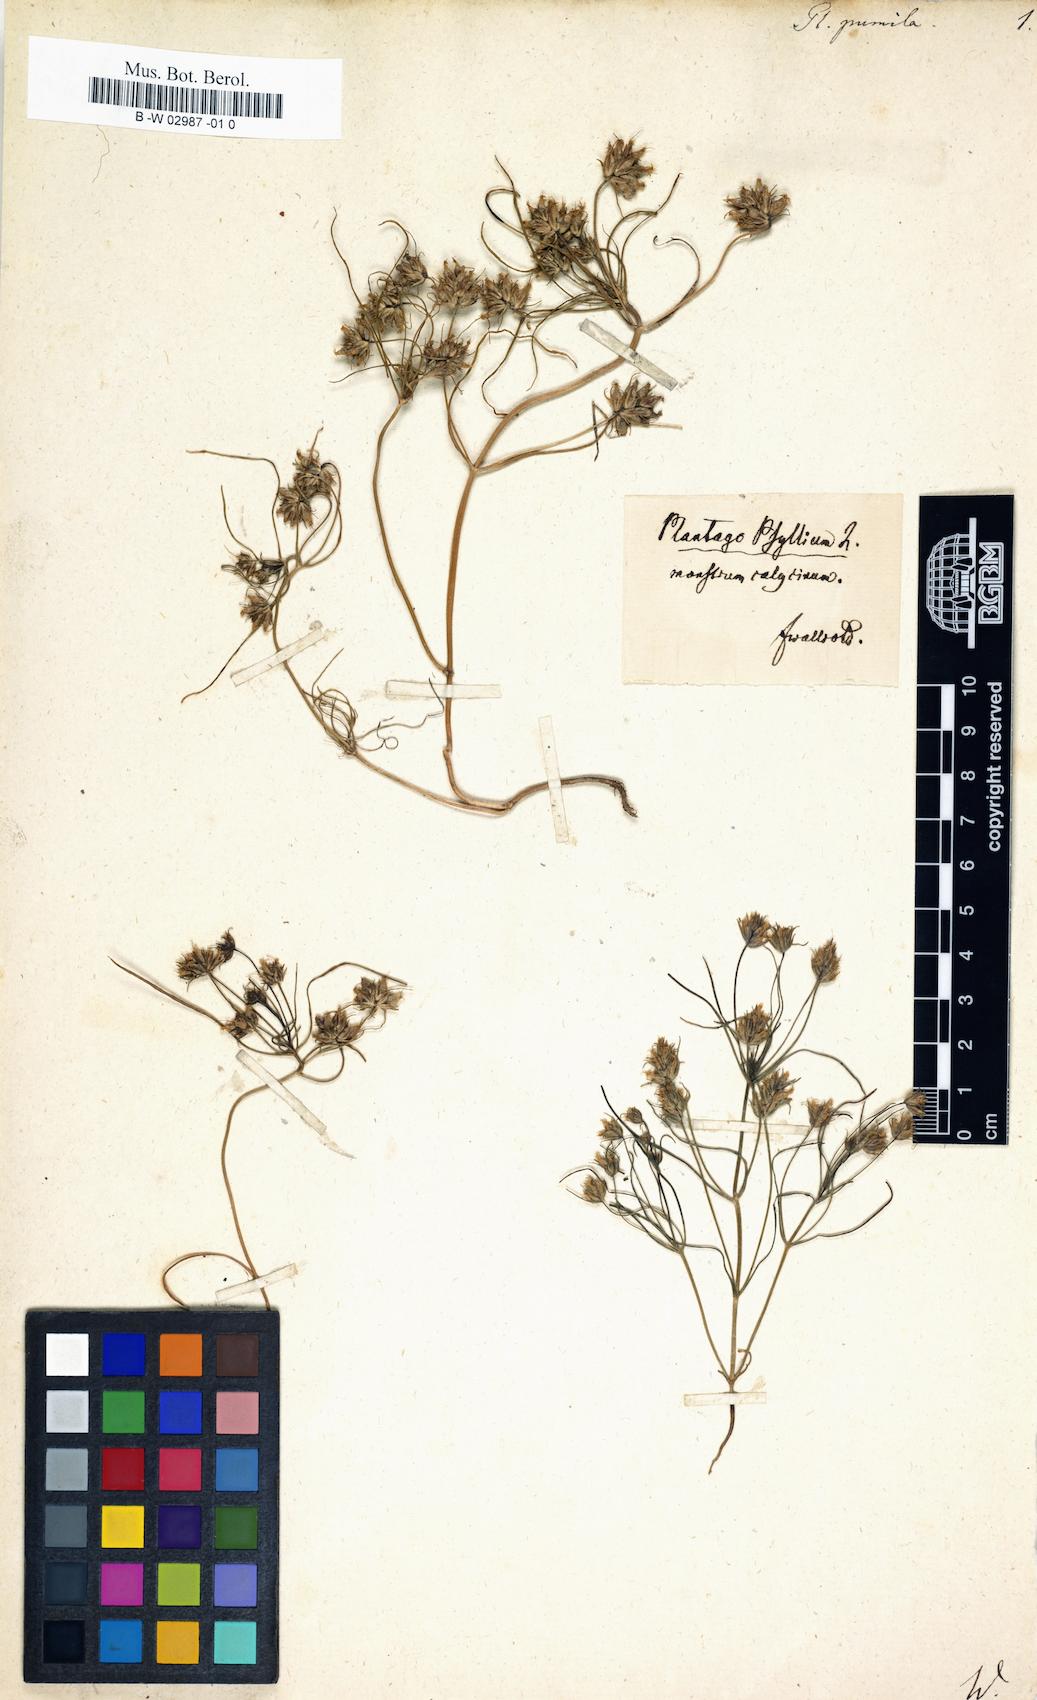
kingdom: Plantae
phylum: Tracheophyta
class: Magnoliopsida
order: Lamiales
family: Plantaginaceae
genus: Plantago
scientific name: Plantago
